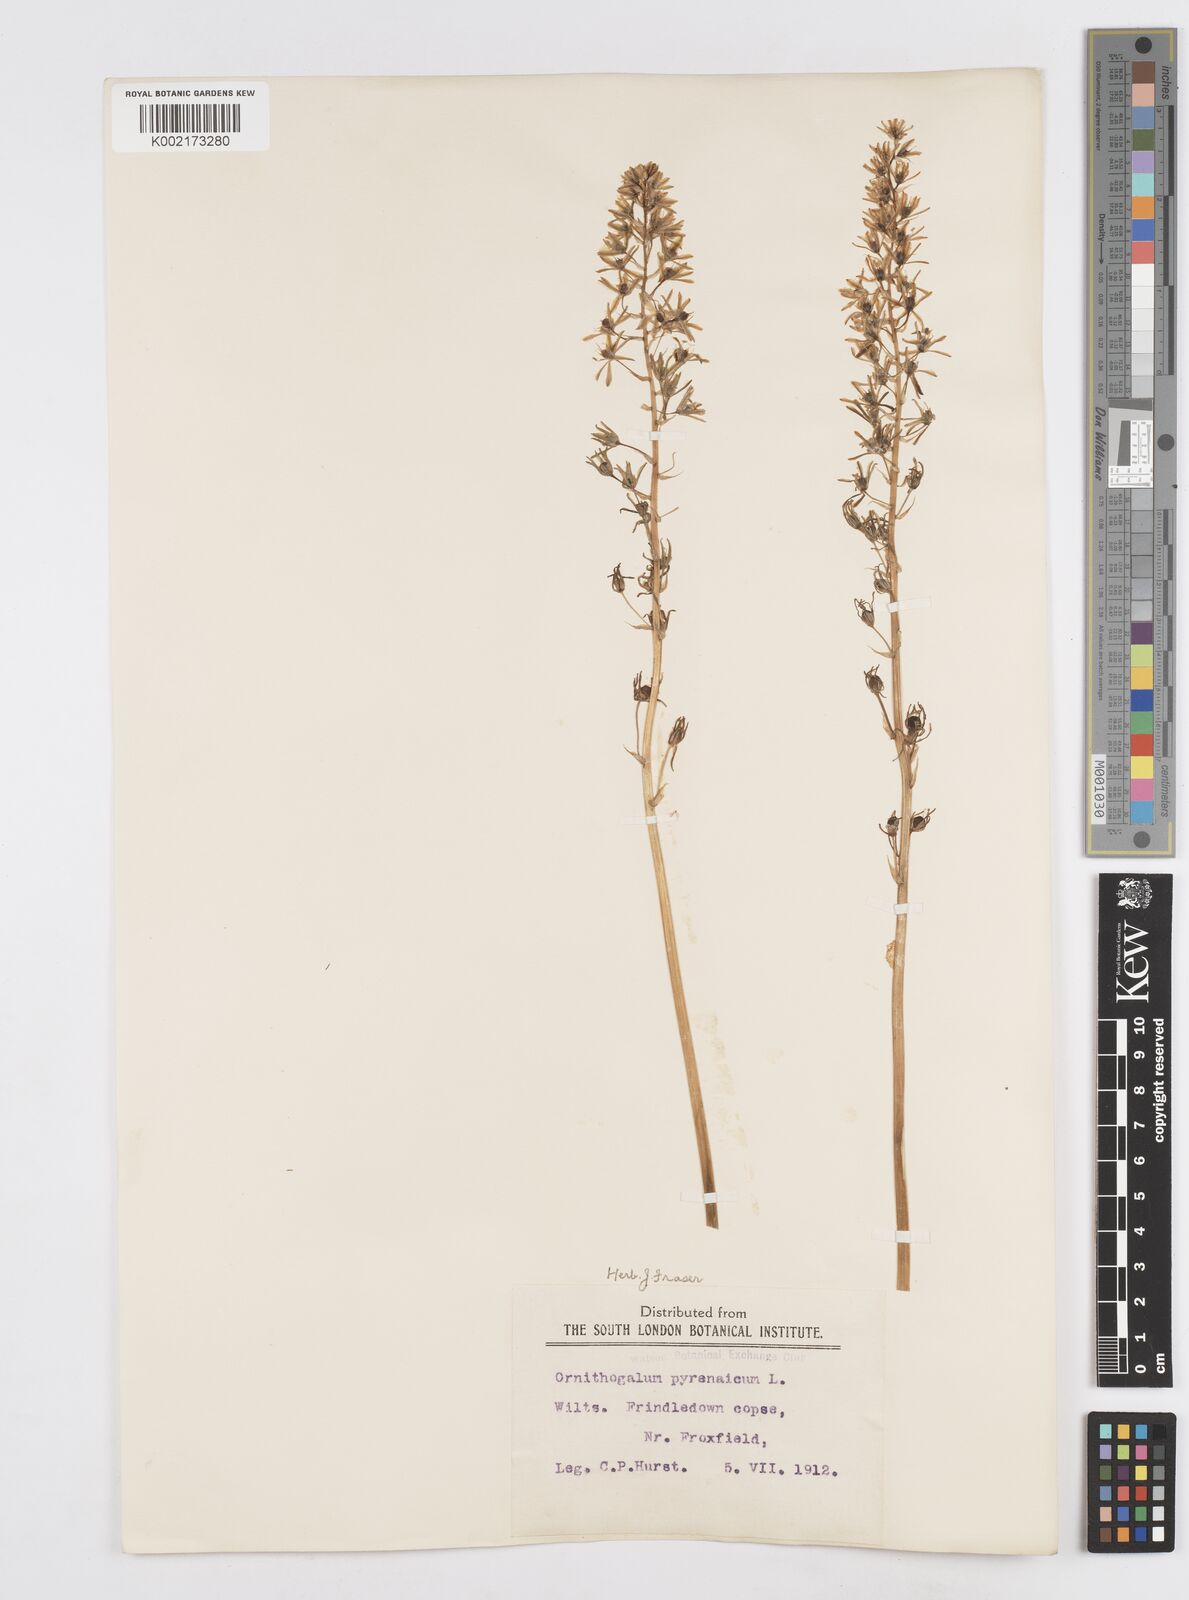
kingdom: Plantae
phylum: Tracheophyta
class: Liliopsida
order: Asparagales
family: Asparagaceae
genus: Ornithogalum
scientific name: Ornithogalum pyrenaicum
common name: Spiked star-of-bethlehem
